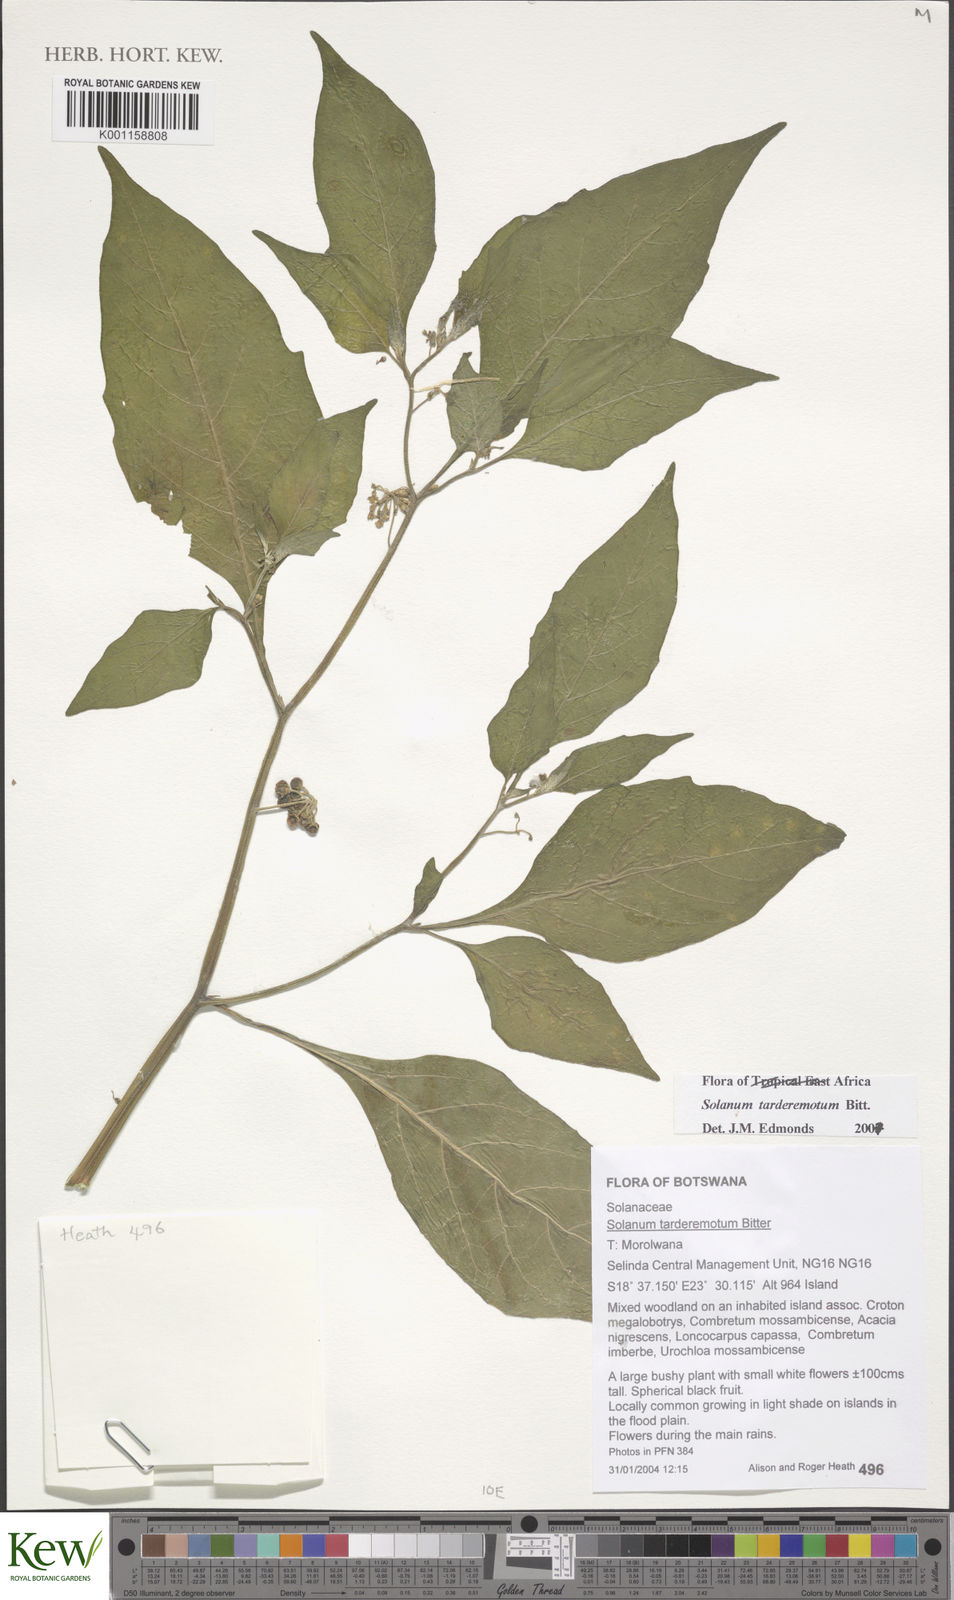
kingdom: Plantae
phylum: Tracheophyta
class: Magnoliopsida
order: Solanales
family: Solanaceae
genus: Solanum
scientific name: Solanum tarderemotum
